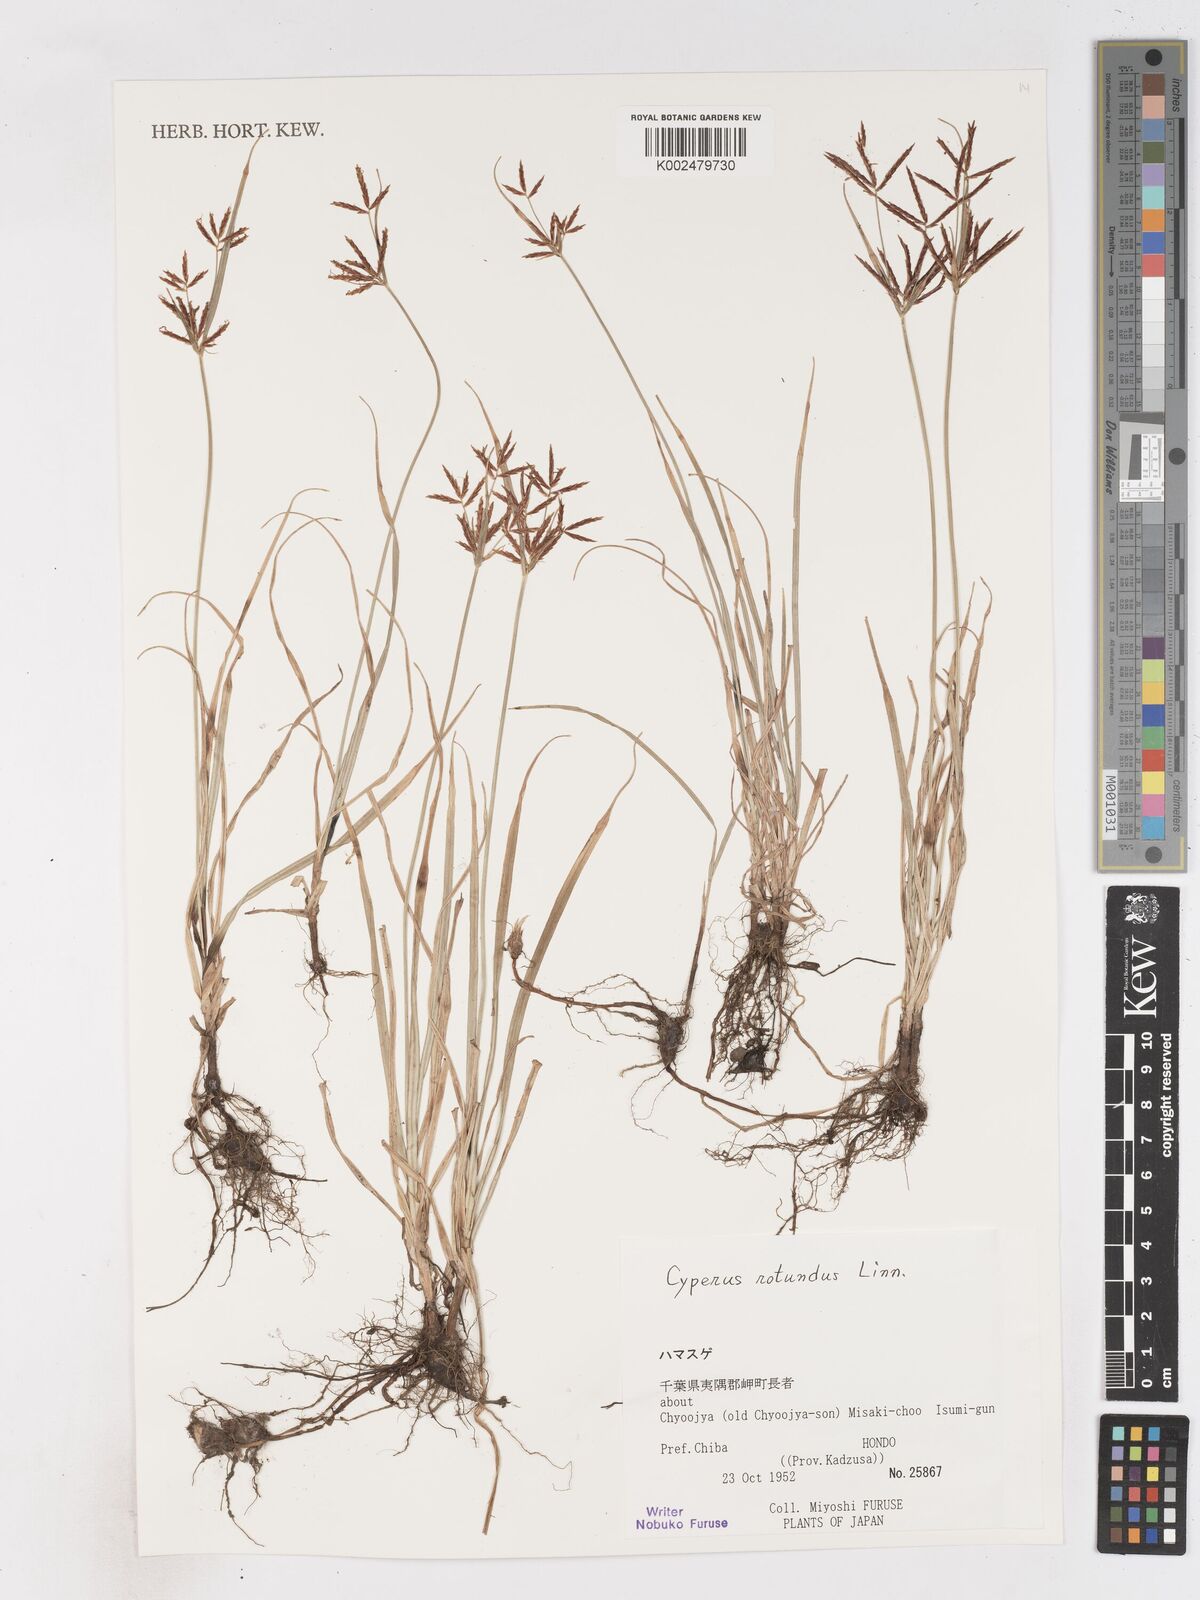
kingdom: Plantae
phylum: Tracheophyta
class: Liliopsida
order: Poales
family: Cyperaceae
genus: Cyperus
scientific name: Cyperus rotundus
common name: Nutgrass
